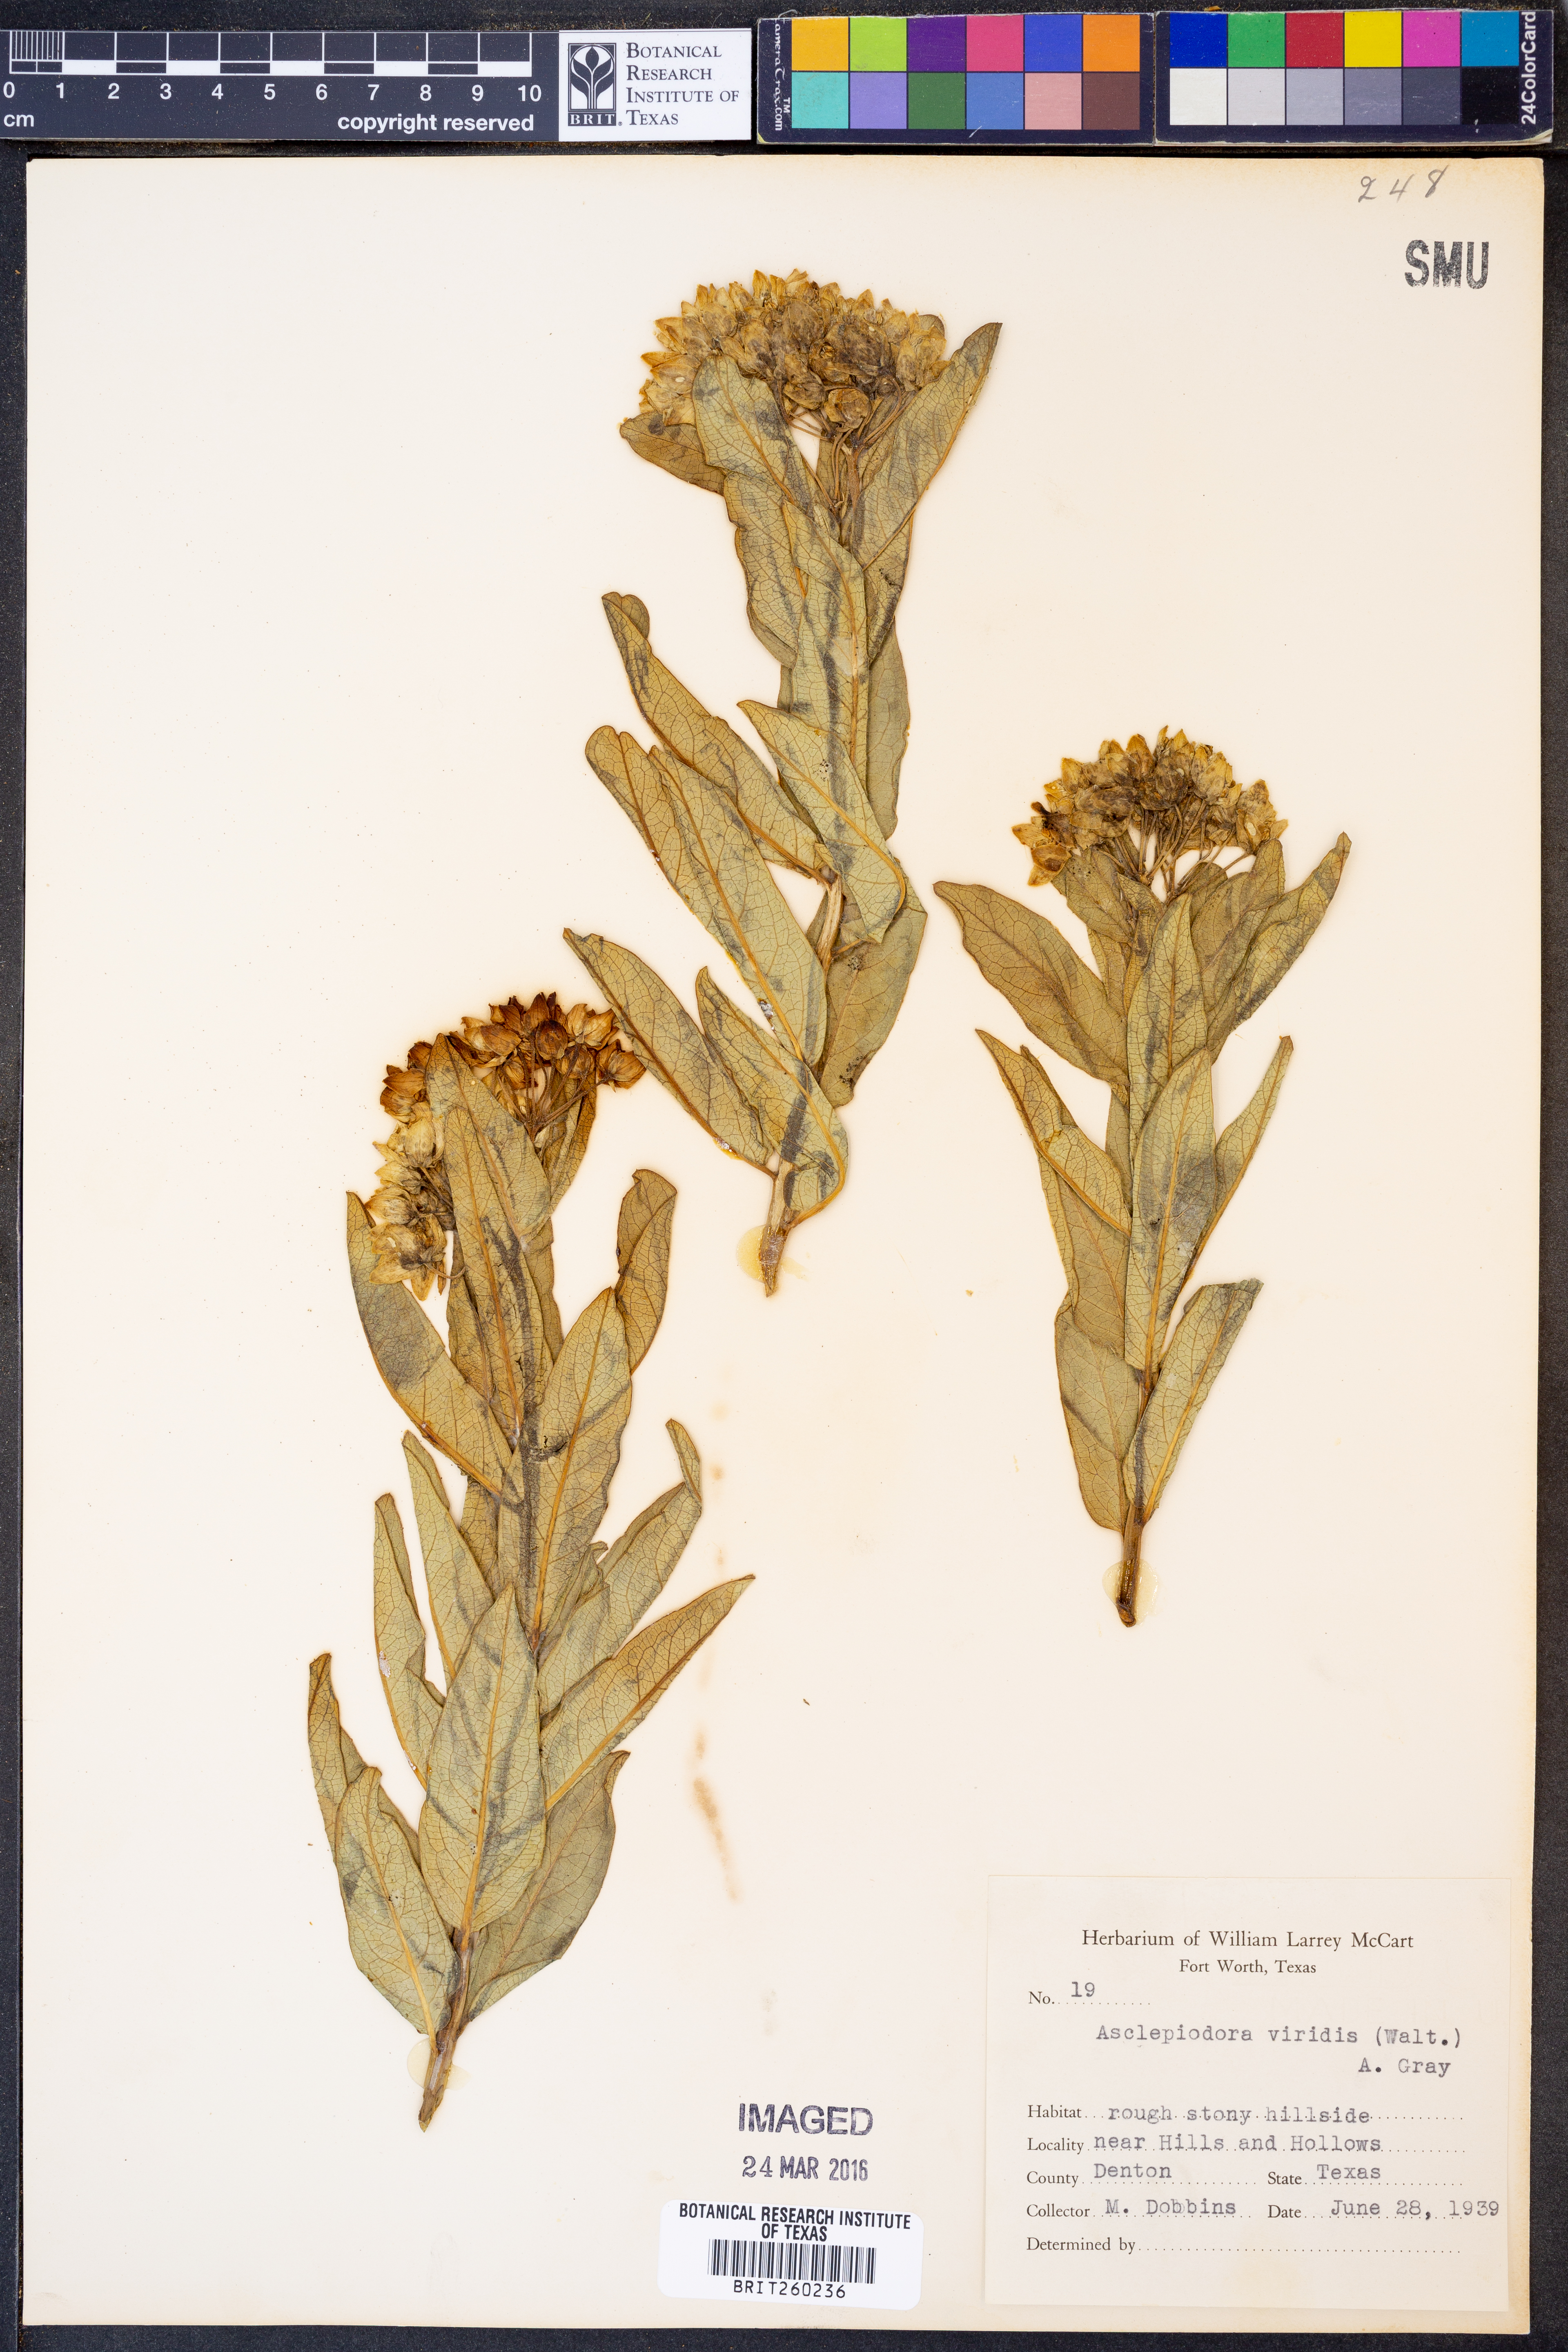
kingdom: Plantae
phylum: Tracheophyta
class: Magnoliopsida
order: Gentianales
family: Apocynaceae
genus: Asclepias
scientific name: Asclepias viridis
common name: Antelope-horns
